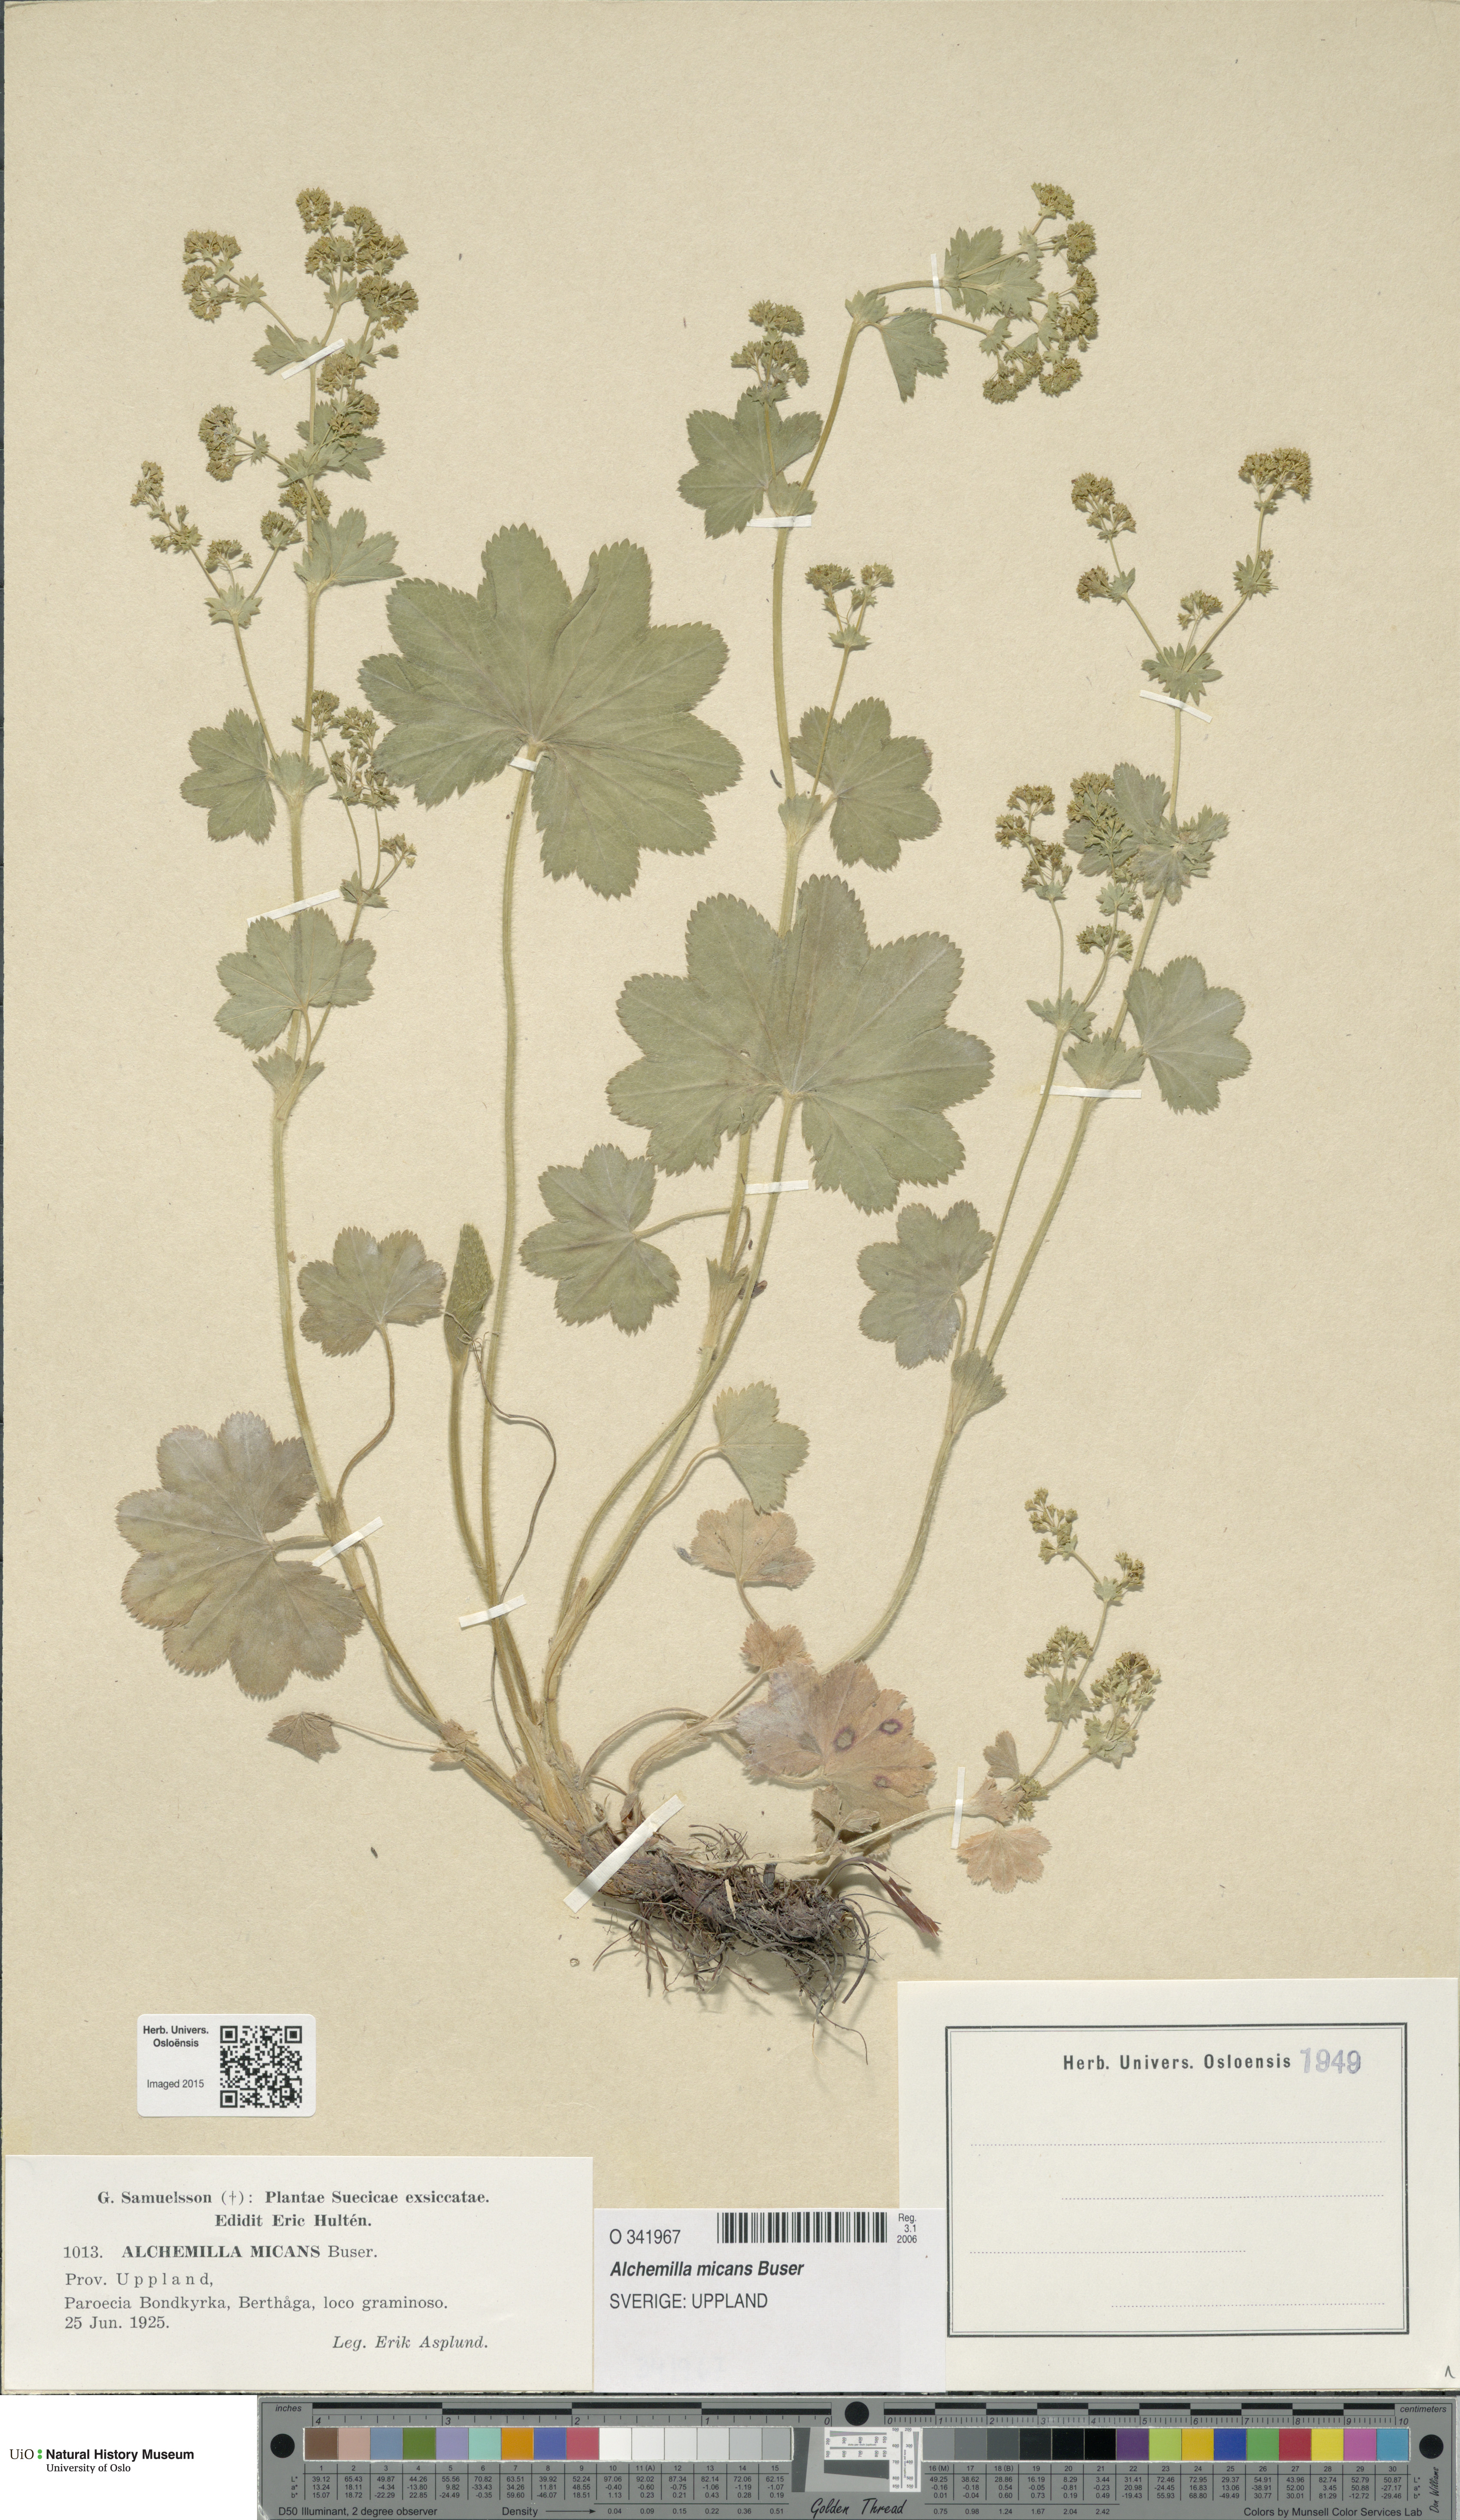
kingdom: Plantae
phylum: Tracheophyta
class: Magnoliopsida
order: Rosales
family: Rosaceae
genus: Alchemilla
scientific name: Alchemilla micans
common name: Gleaming lady's mantle
